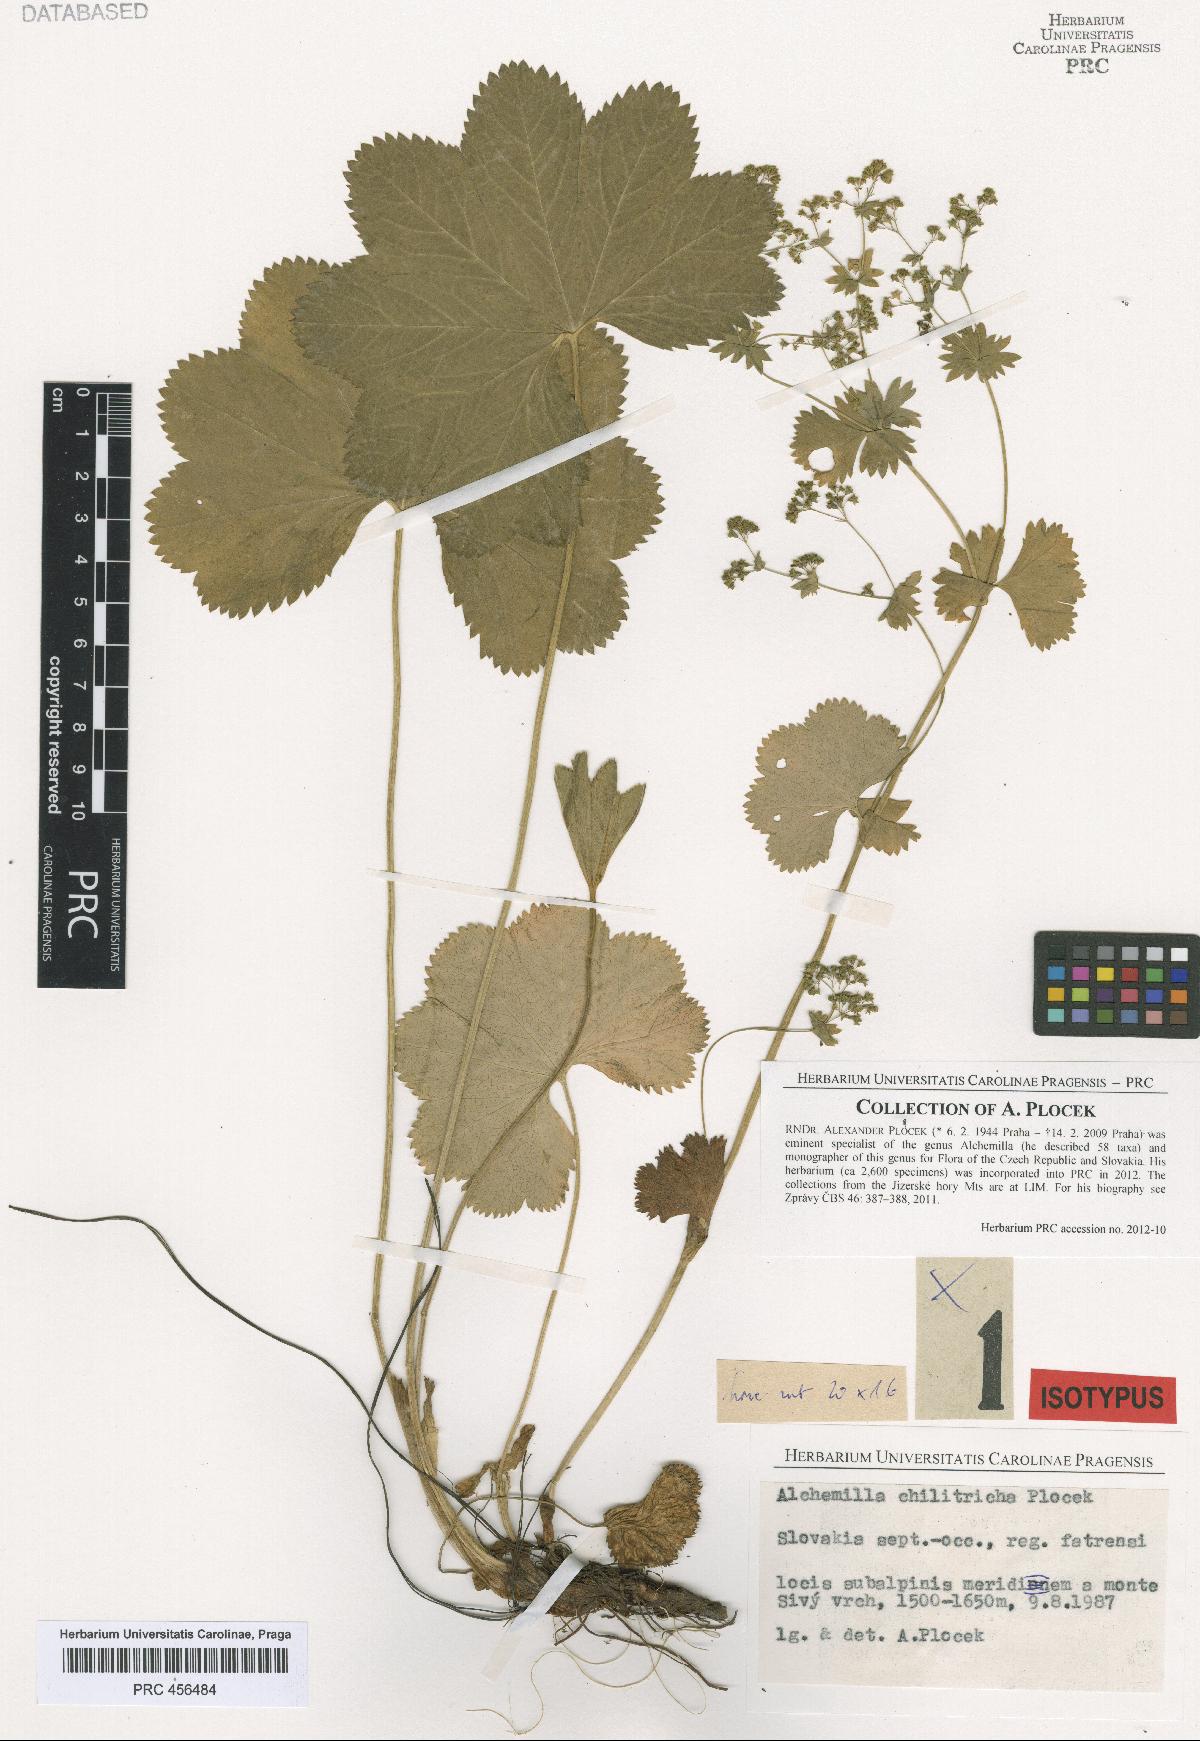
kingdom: Plantae
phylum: Tracheophyta
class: Magnoliopsida
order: Rosales
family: Rosaceae
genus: Alchemilla
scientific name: Alchemilla chilitricha
